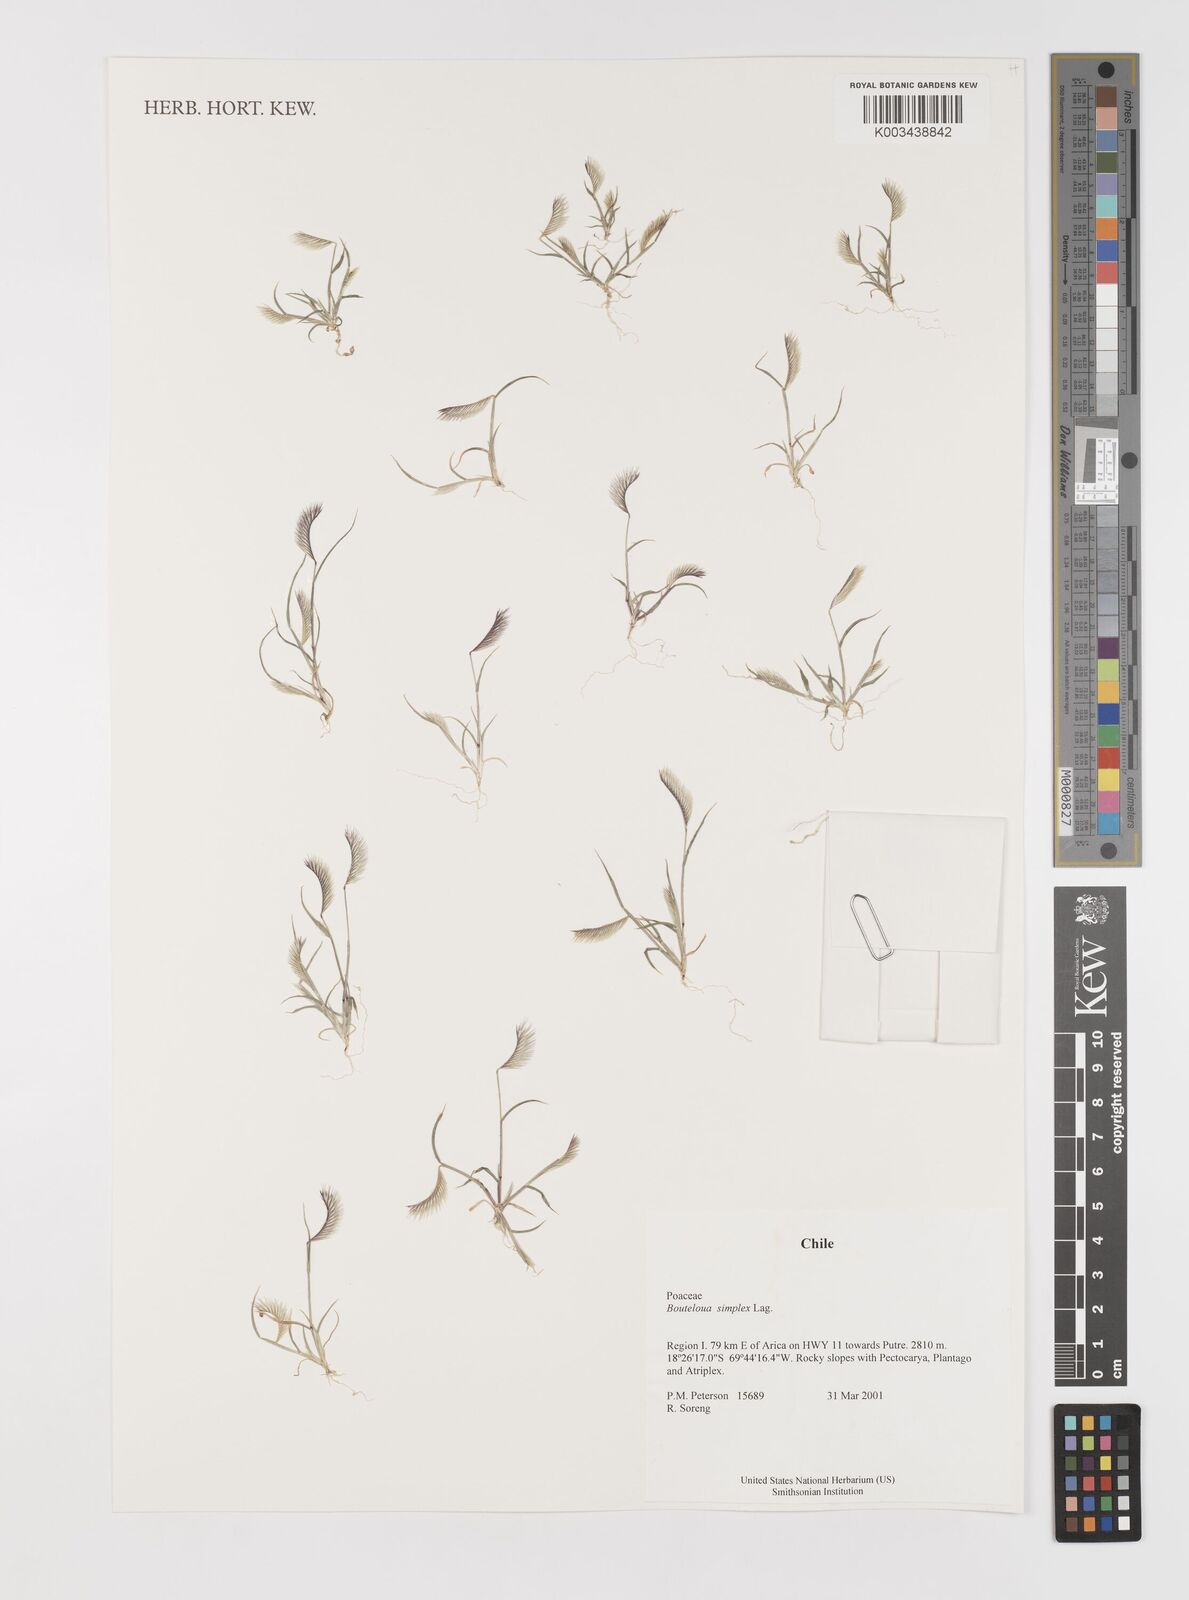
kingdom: Plantae
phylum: Tracheophyta
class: Liliopsida
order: Poales
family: Poaceae
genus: Bouteloua
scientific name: Bouteloua simplex
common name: Mat grama
